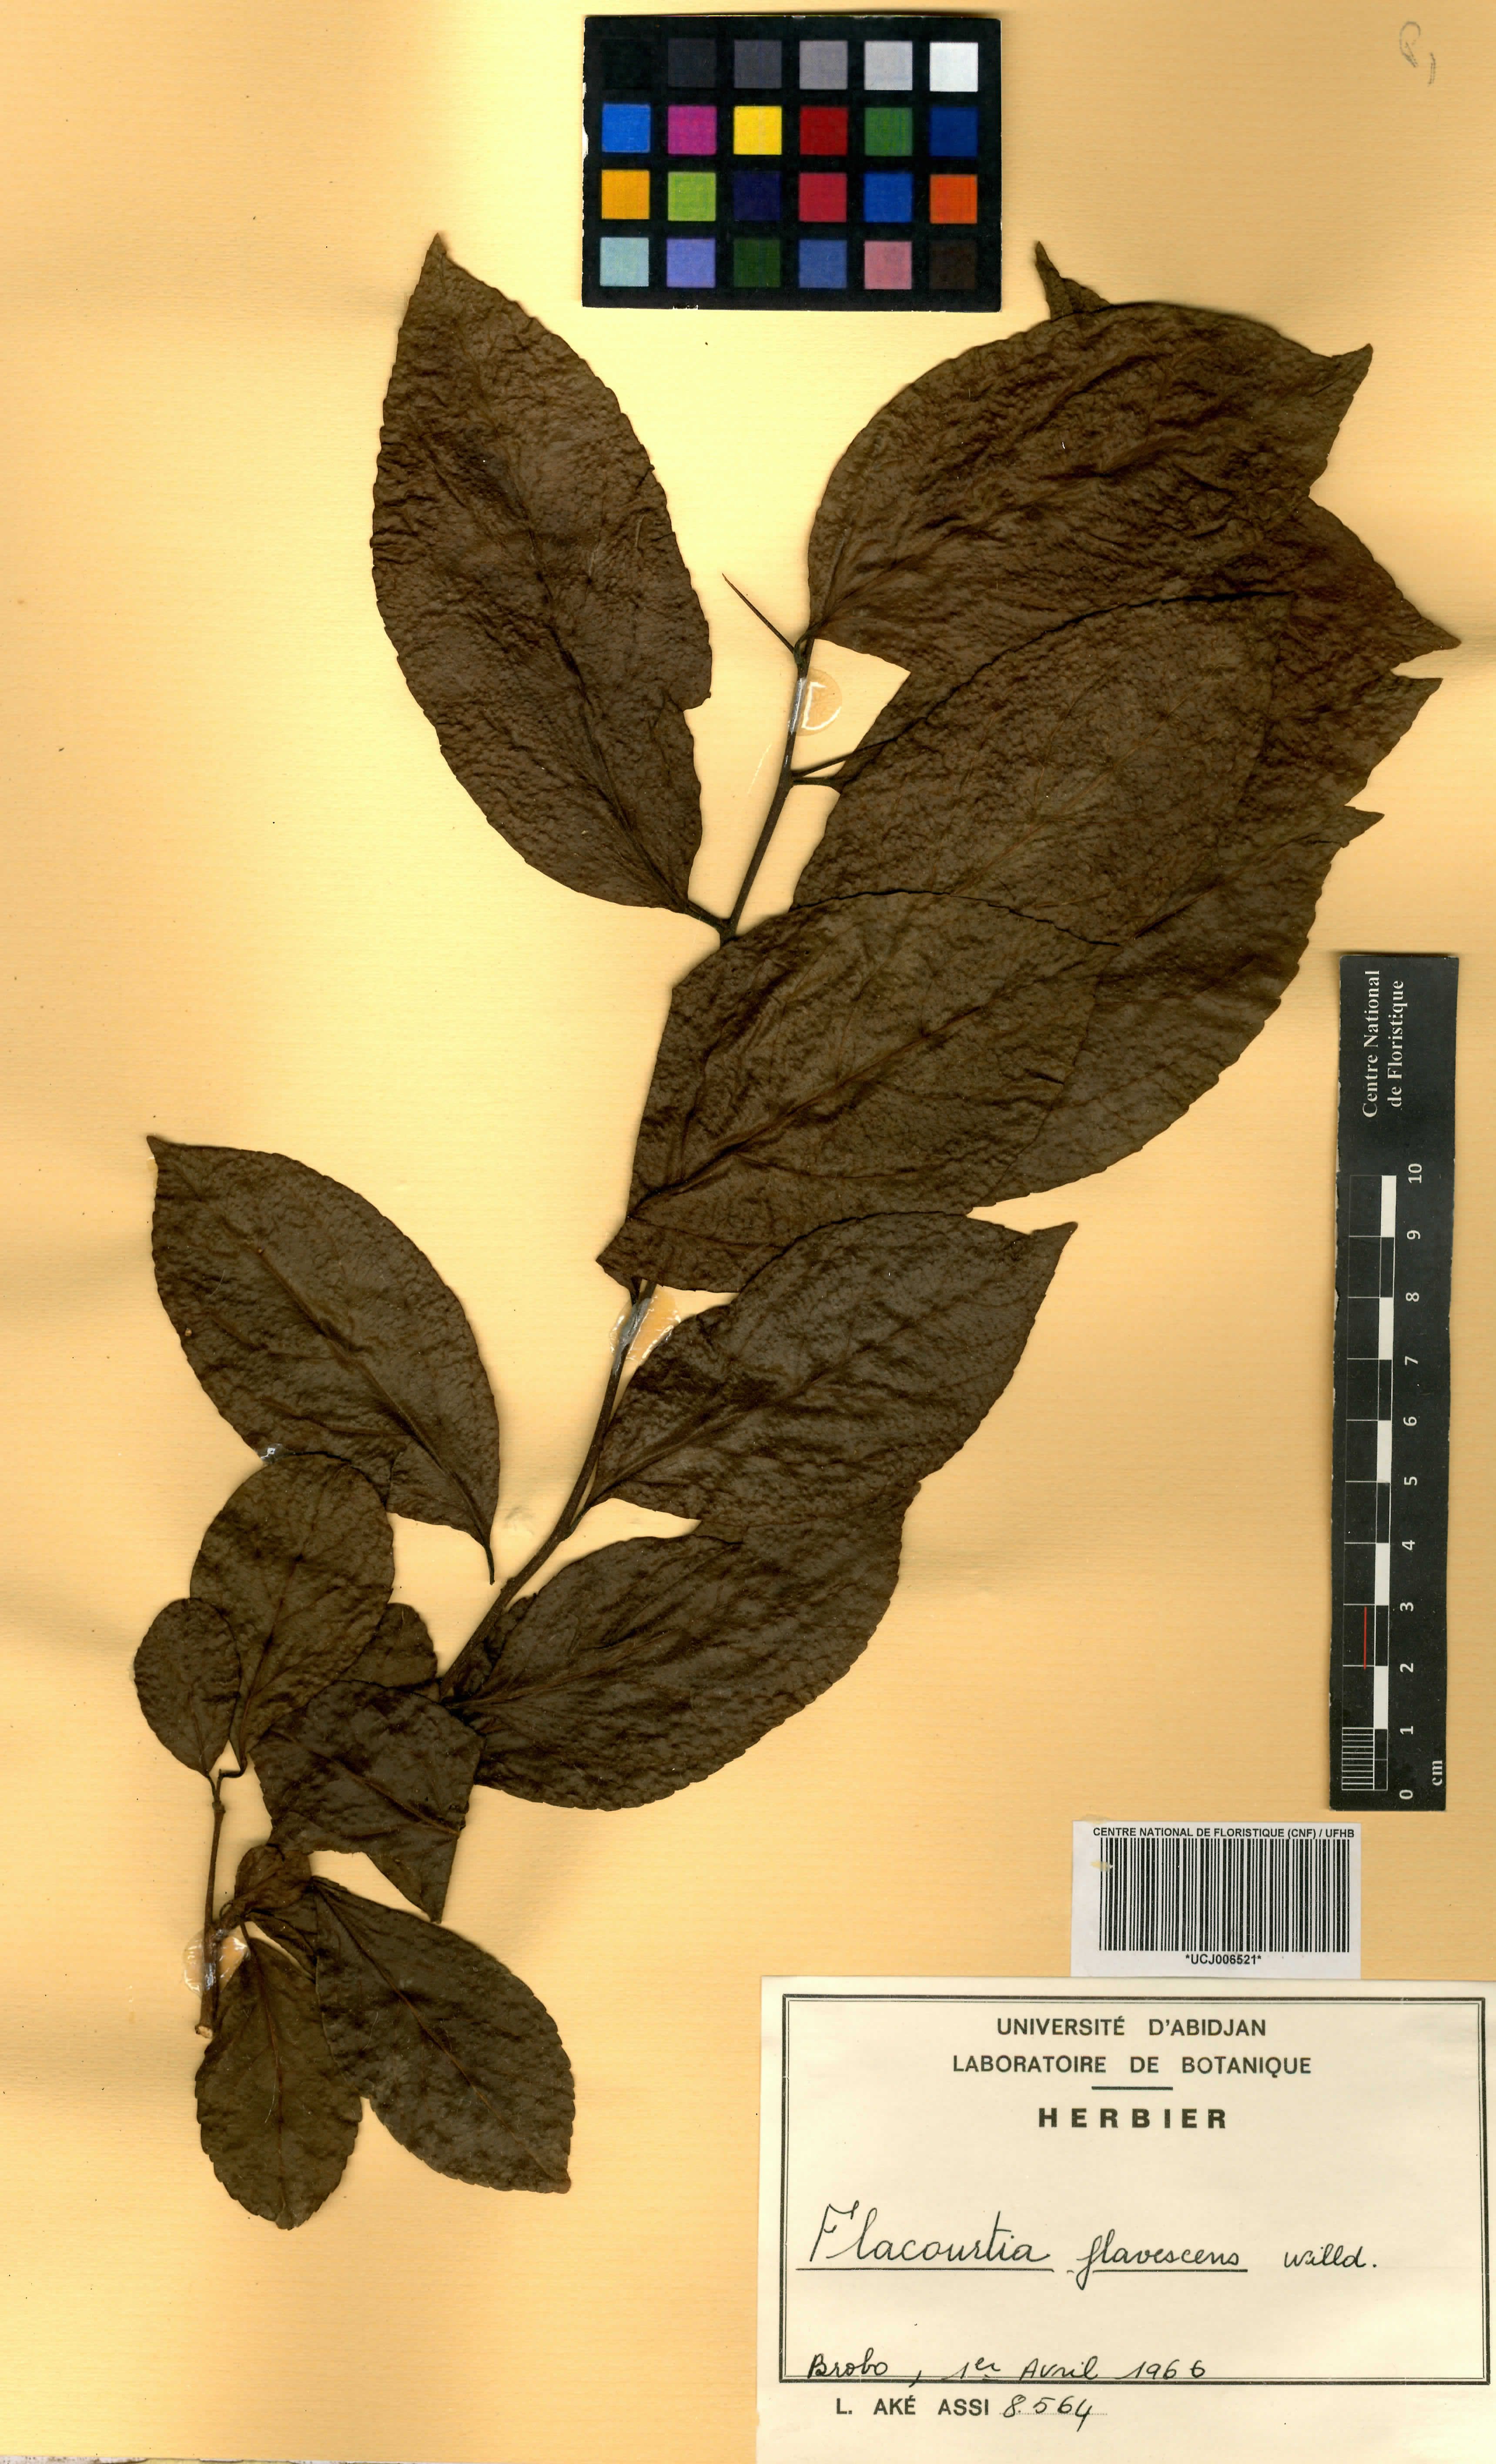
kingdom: Plantae
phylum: Tracheophyta
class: Magnoliopsida
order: Malpighiales
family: Salicaceae
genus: Flacourtia
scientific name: Flacourtia indica
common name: Governor's plum
